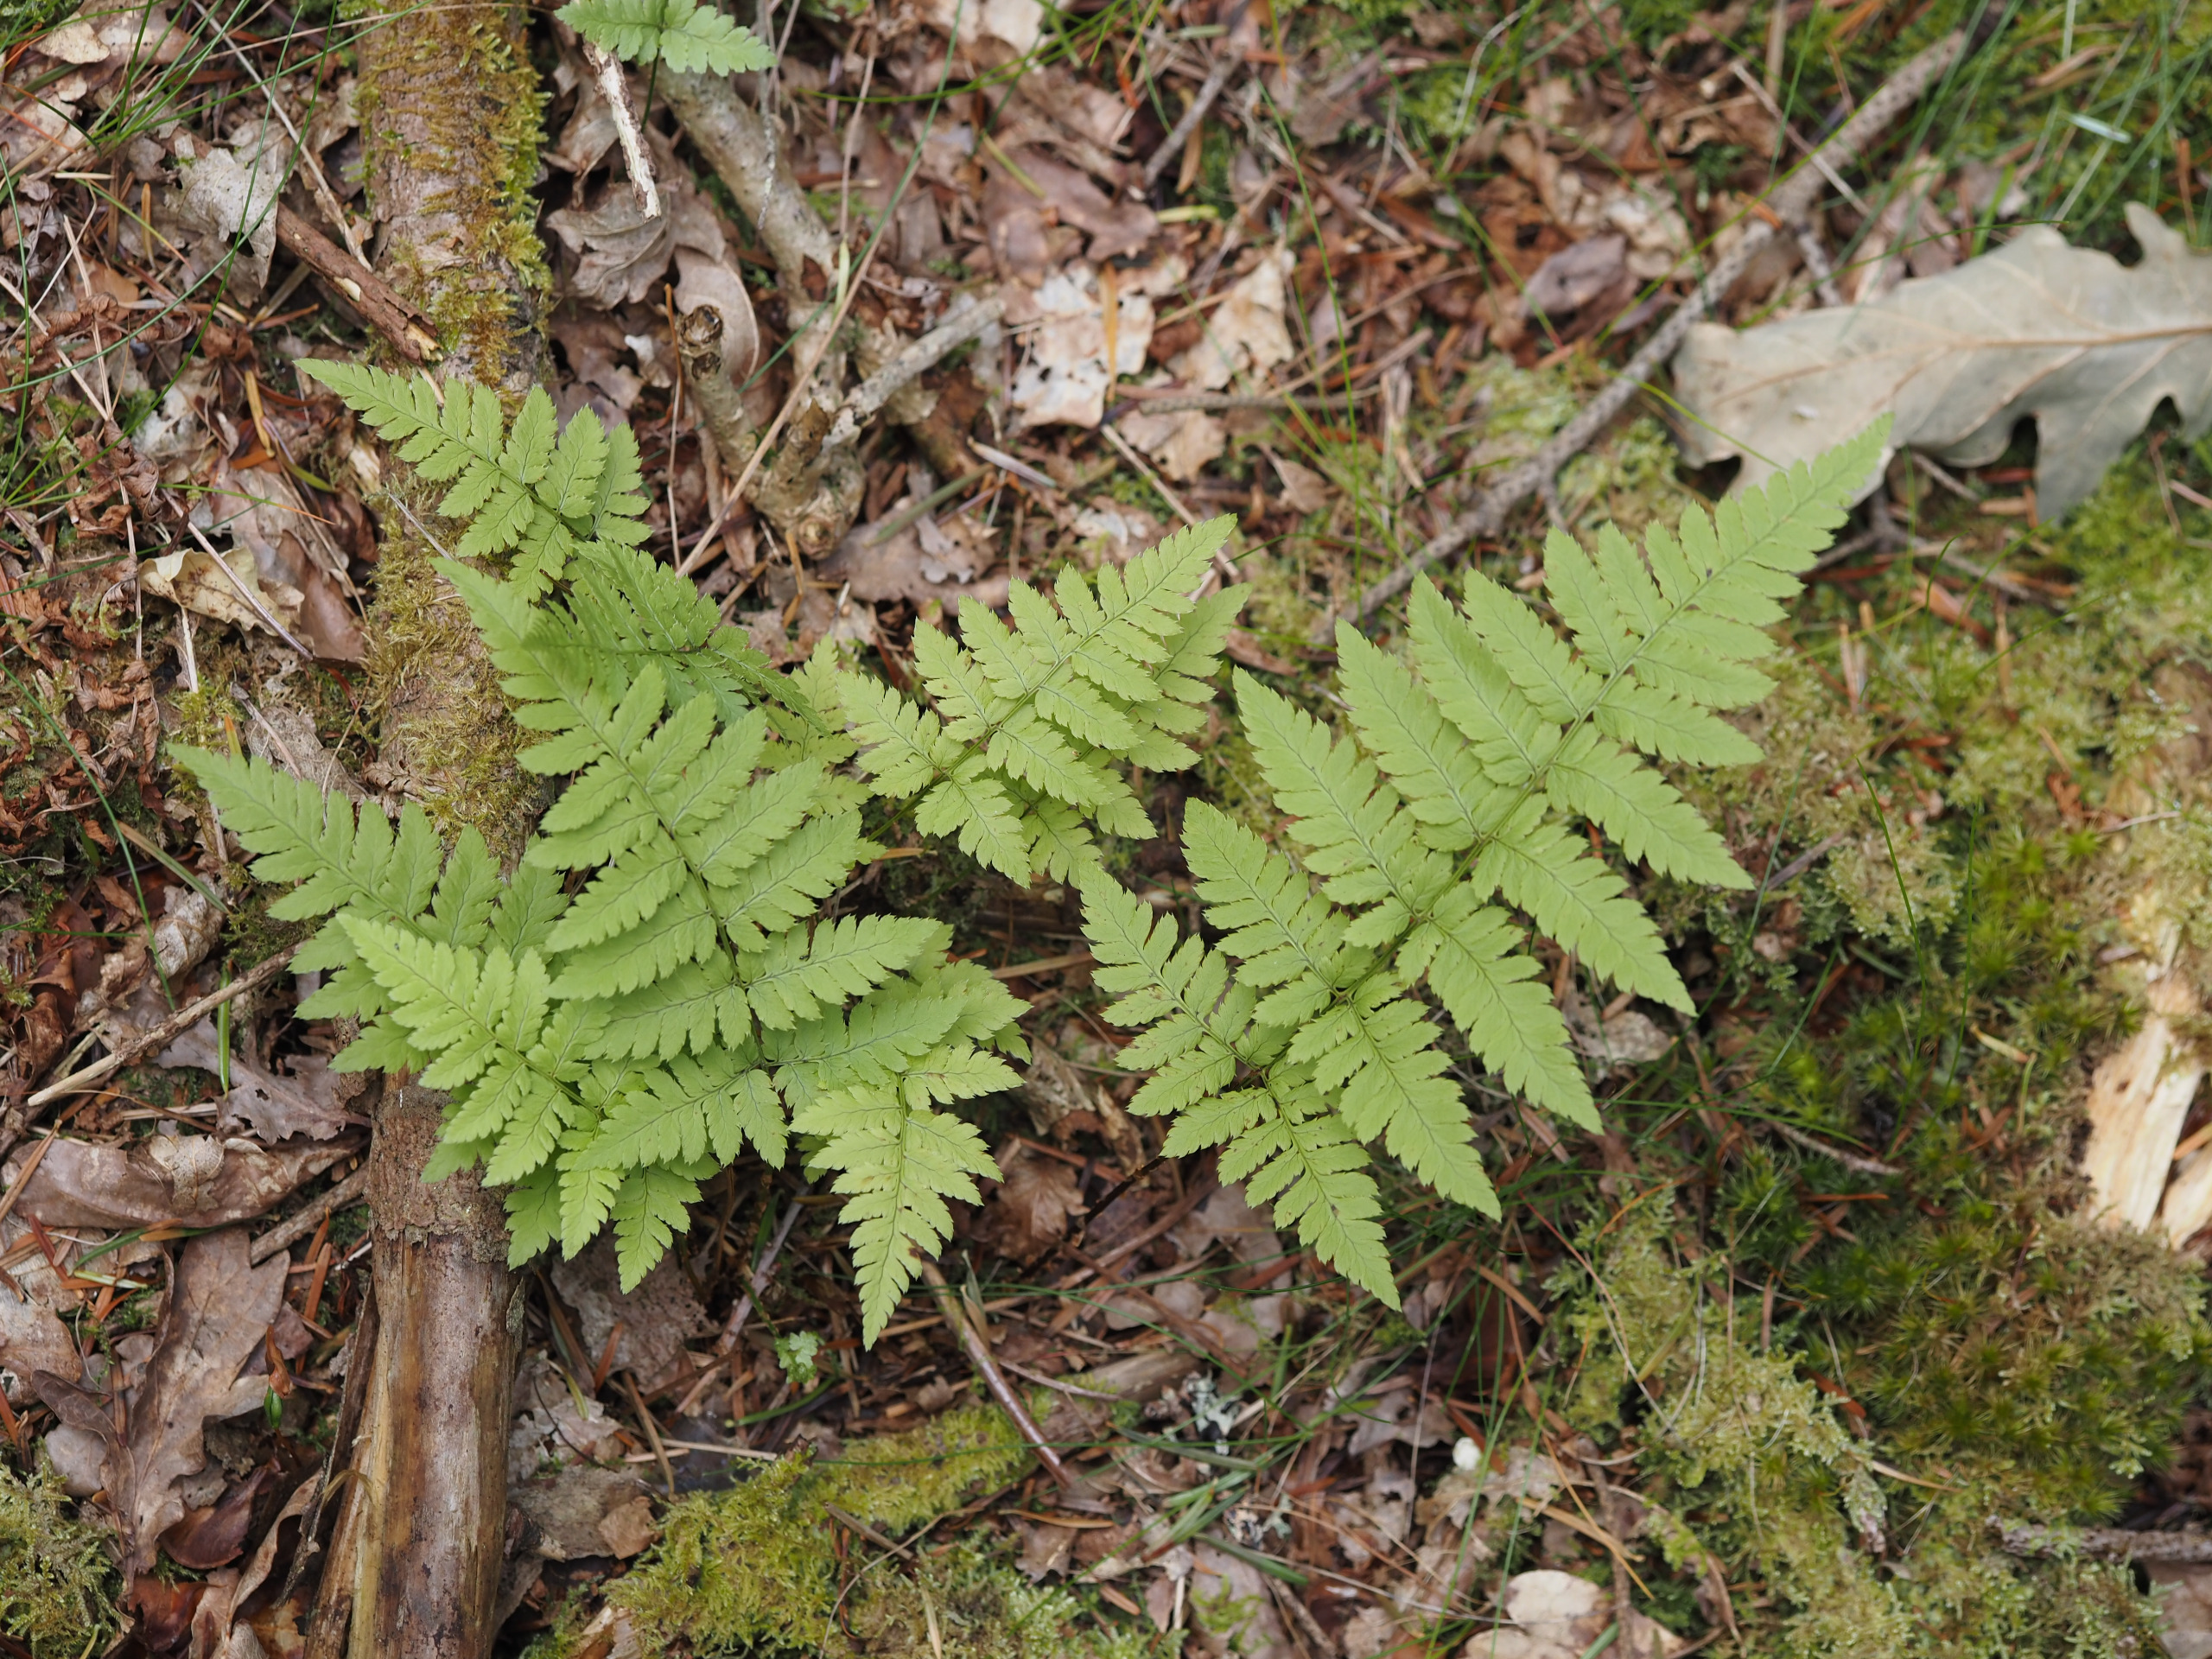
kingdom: Plantae
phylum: Tracheophyta
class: Polypodiopsida
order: Polypodiales
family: Dryopteridaceae
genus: Dryopteris
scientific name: Dryopteris
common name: Mangeløv (Dryopteris-slægten)
